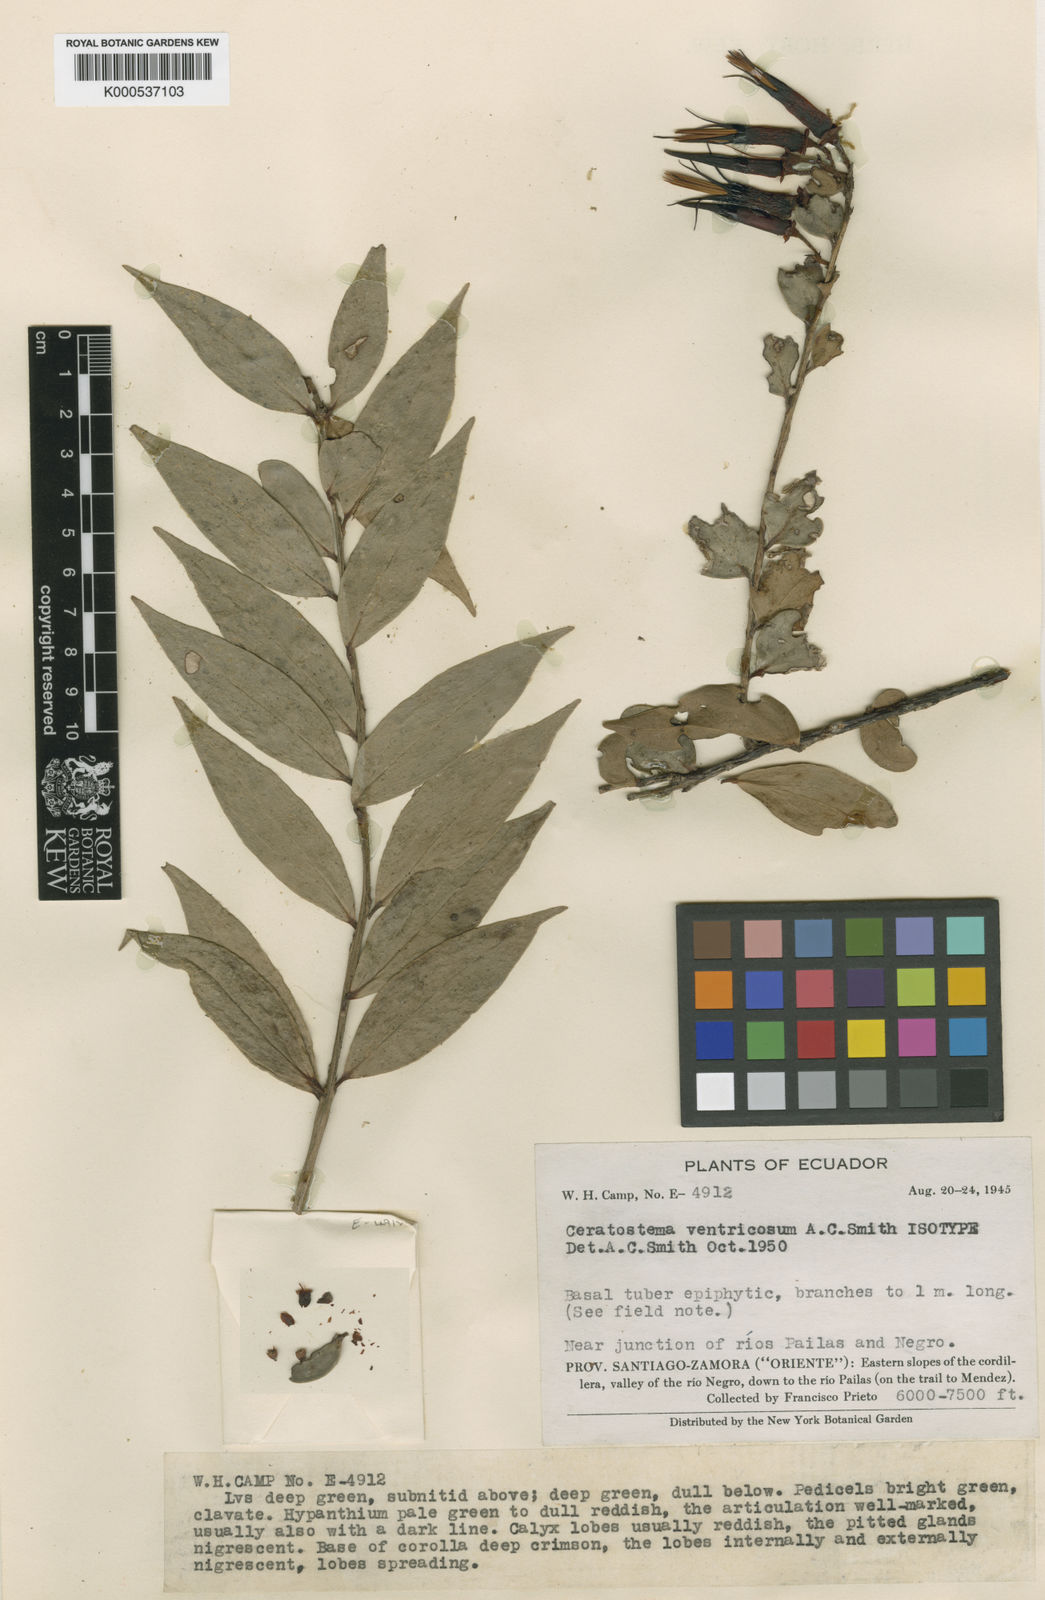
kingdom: Plantae
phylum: Tracheophyta
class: Magnoliopsida
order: Ericales
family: Ericaceae
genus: Ceratostema
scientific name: Ceratostema ventricosum
